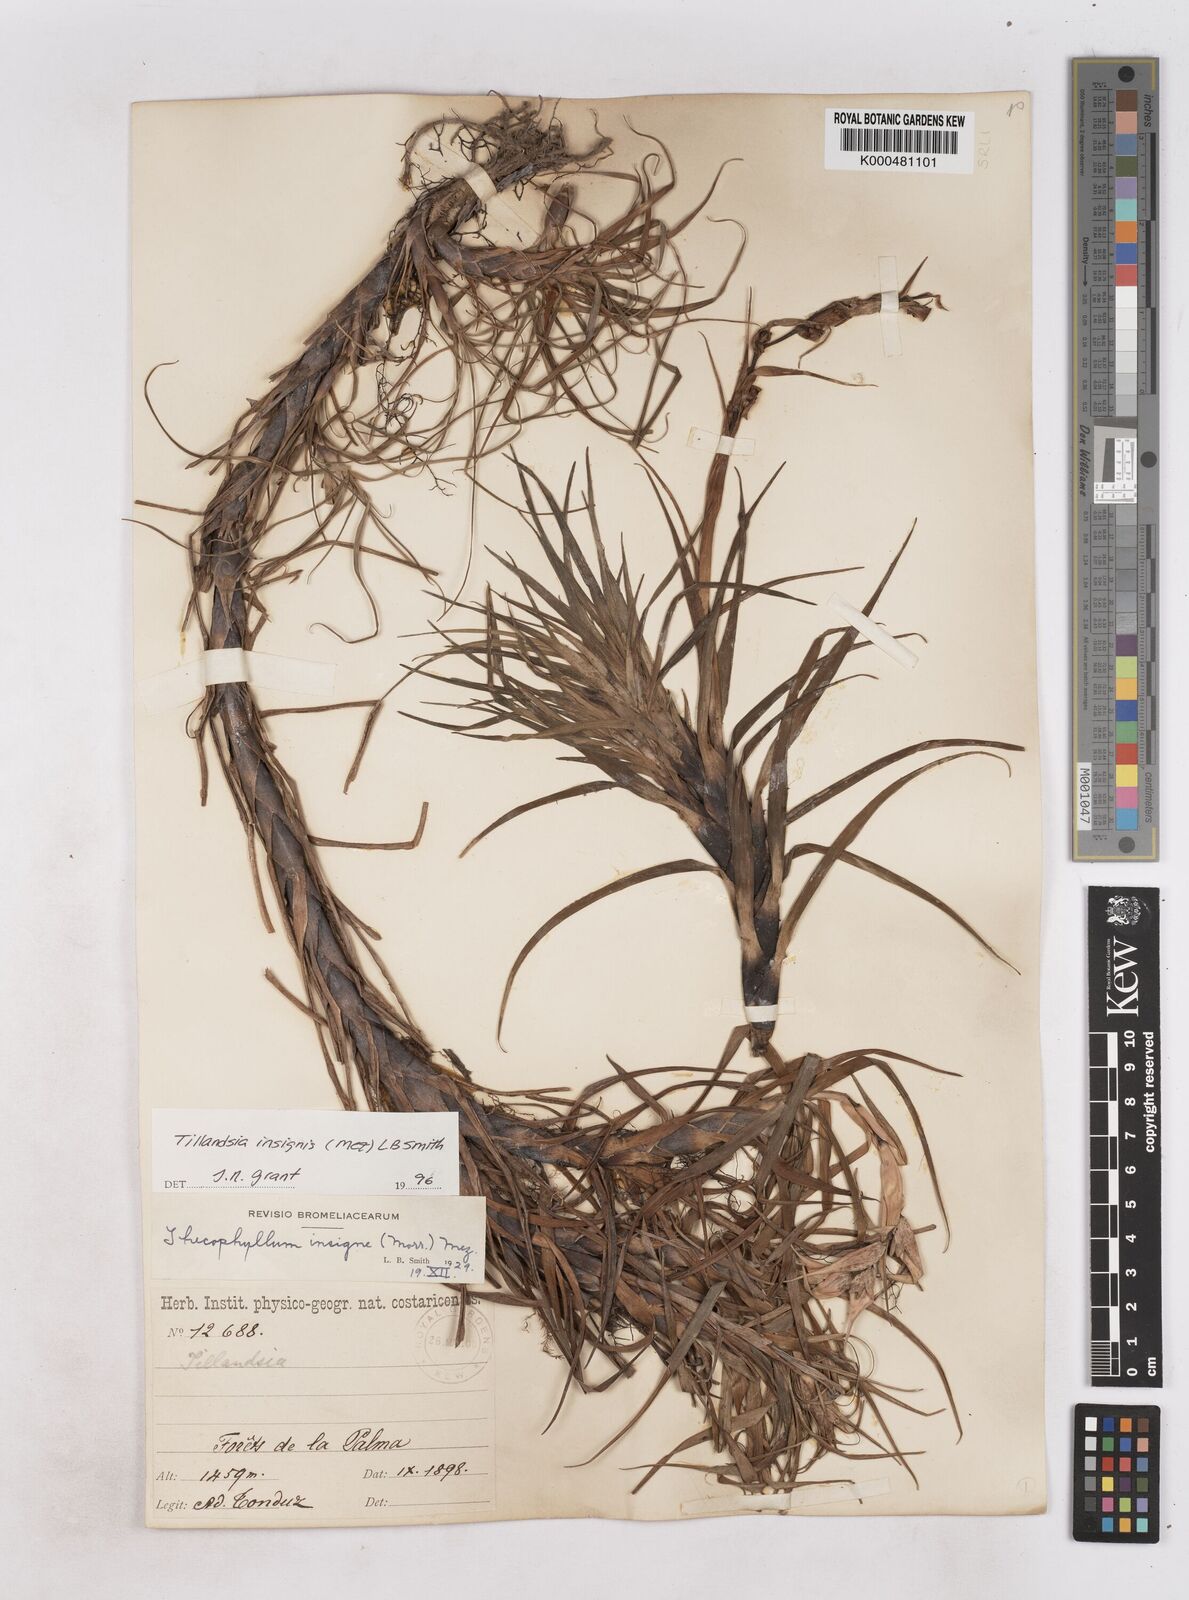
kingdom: Plantae
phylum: Tracheophyta
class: Liliopsida
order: Poales
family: Bromeliaceae
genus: Tillandsia
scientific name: Tillandsia
